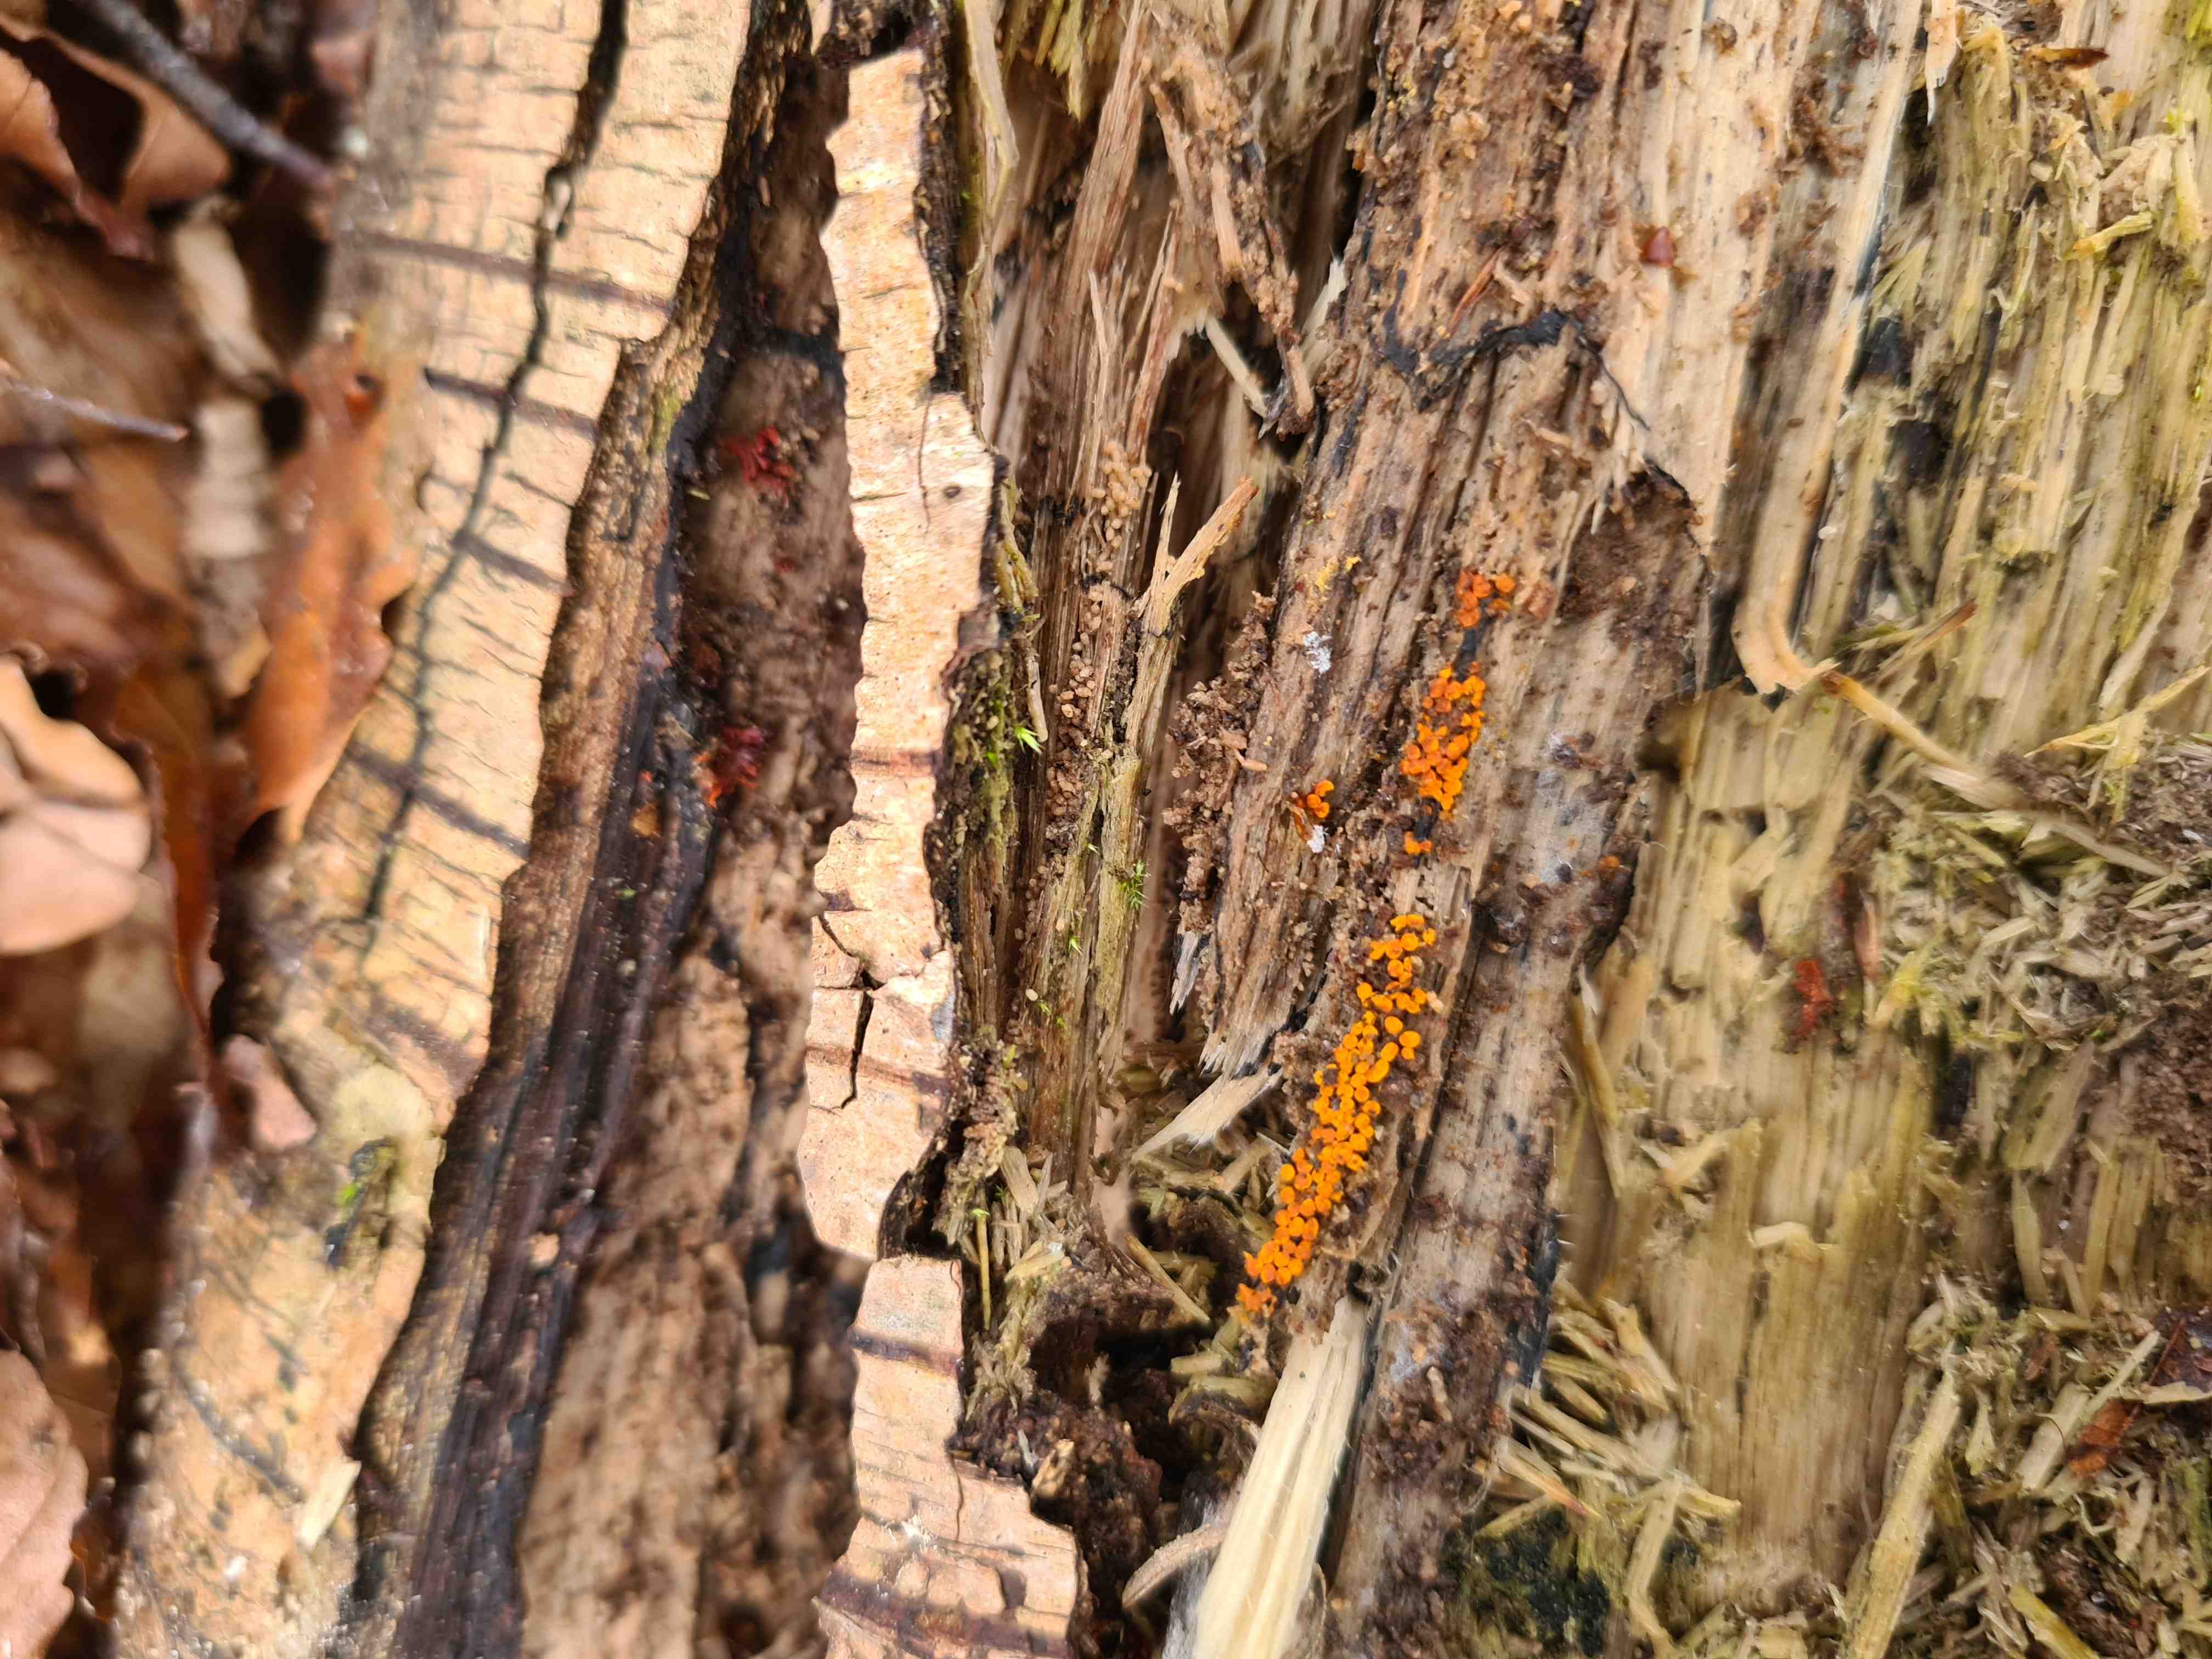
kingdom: Protozoa
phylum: Mycetozoa
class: Myxomycetes
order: Trichiales
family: Trichiaceae
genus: Trichia
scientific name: Trichia scabra
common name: tæppe-hårbold
